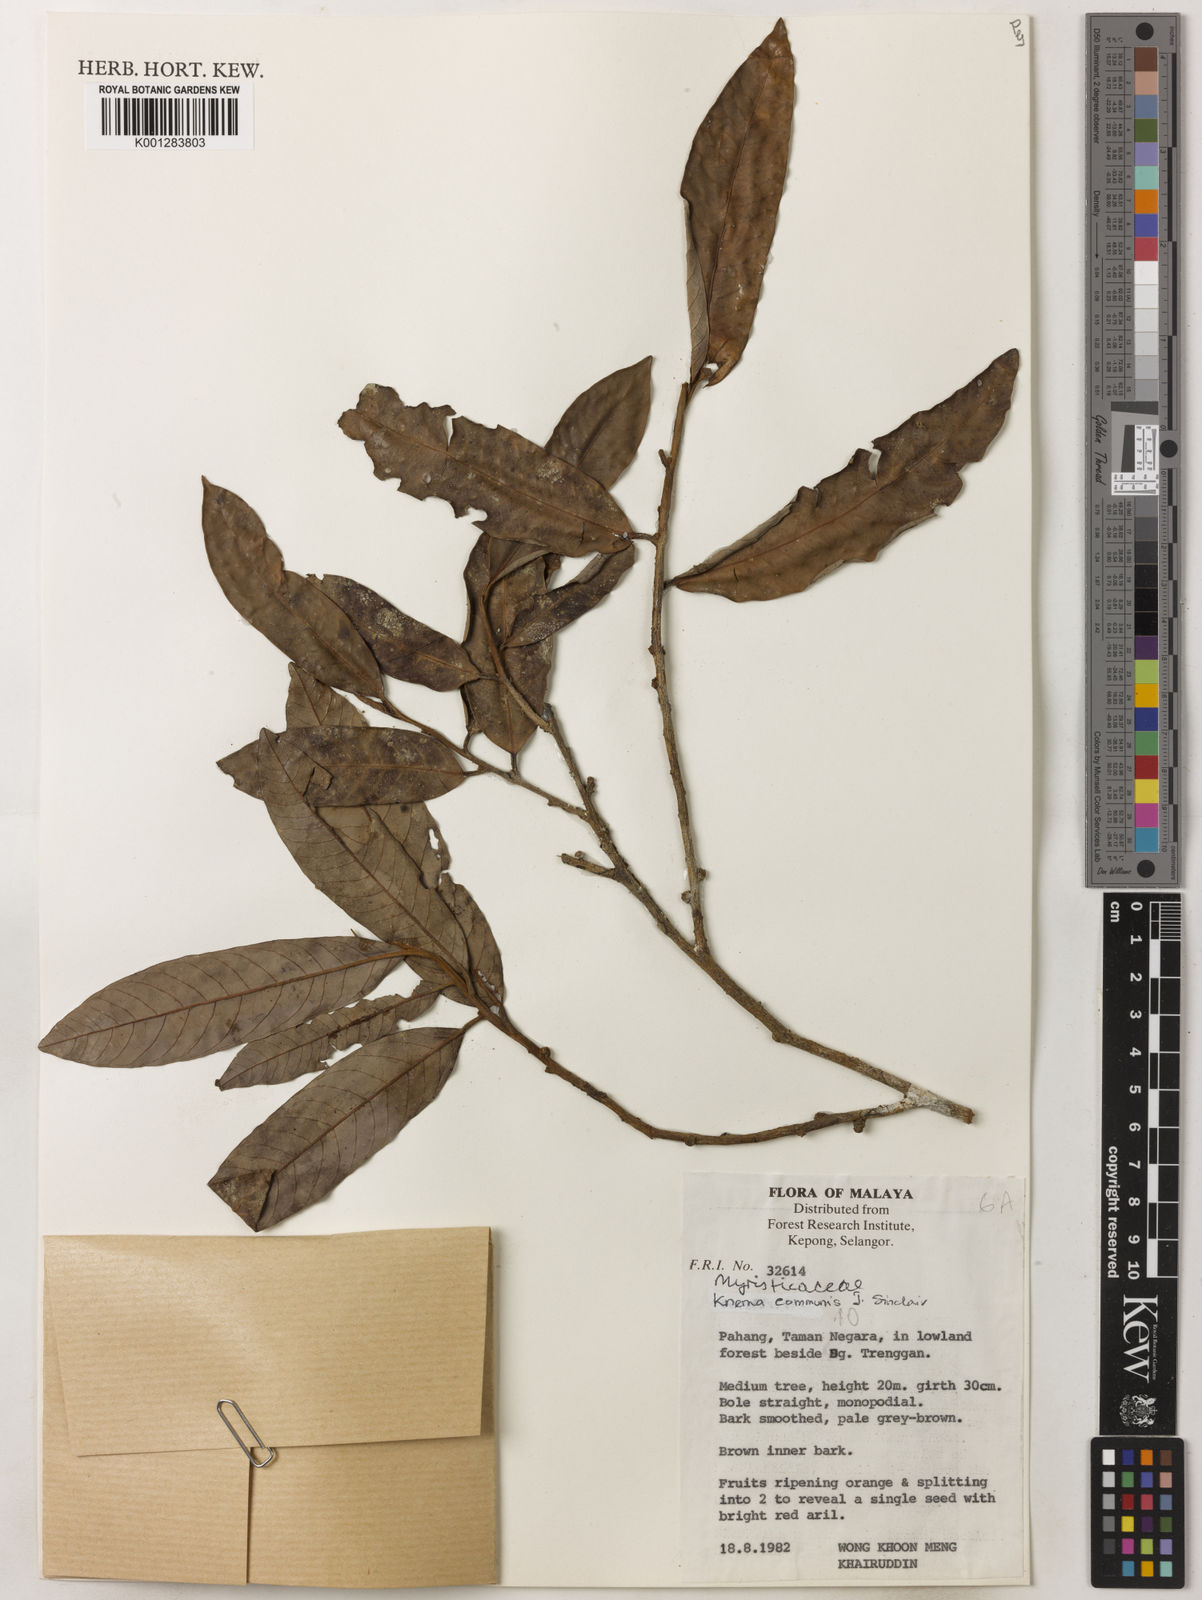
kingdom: Plantae
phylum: Tracheophyta
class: Magnoliopsida
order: Magnoliales
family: Myristicaceae
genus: Knema
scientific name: Knema communis
